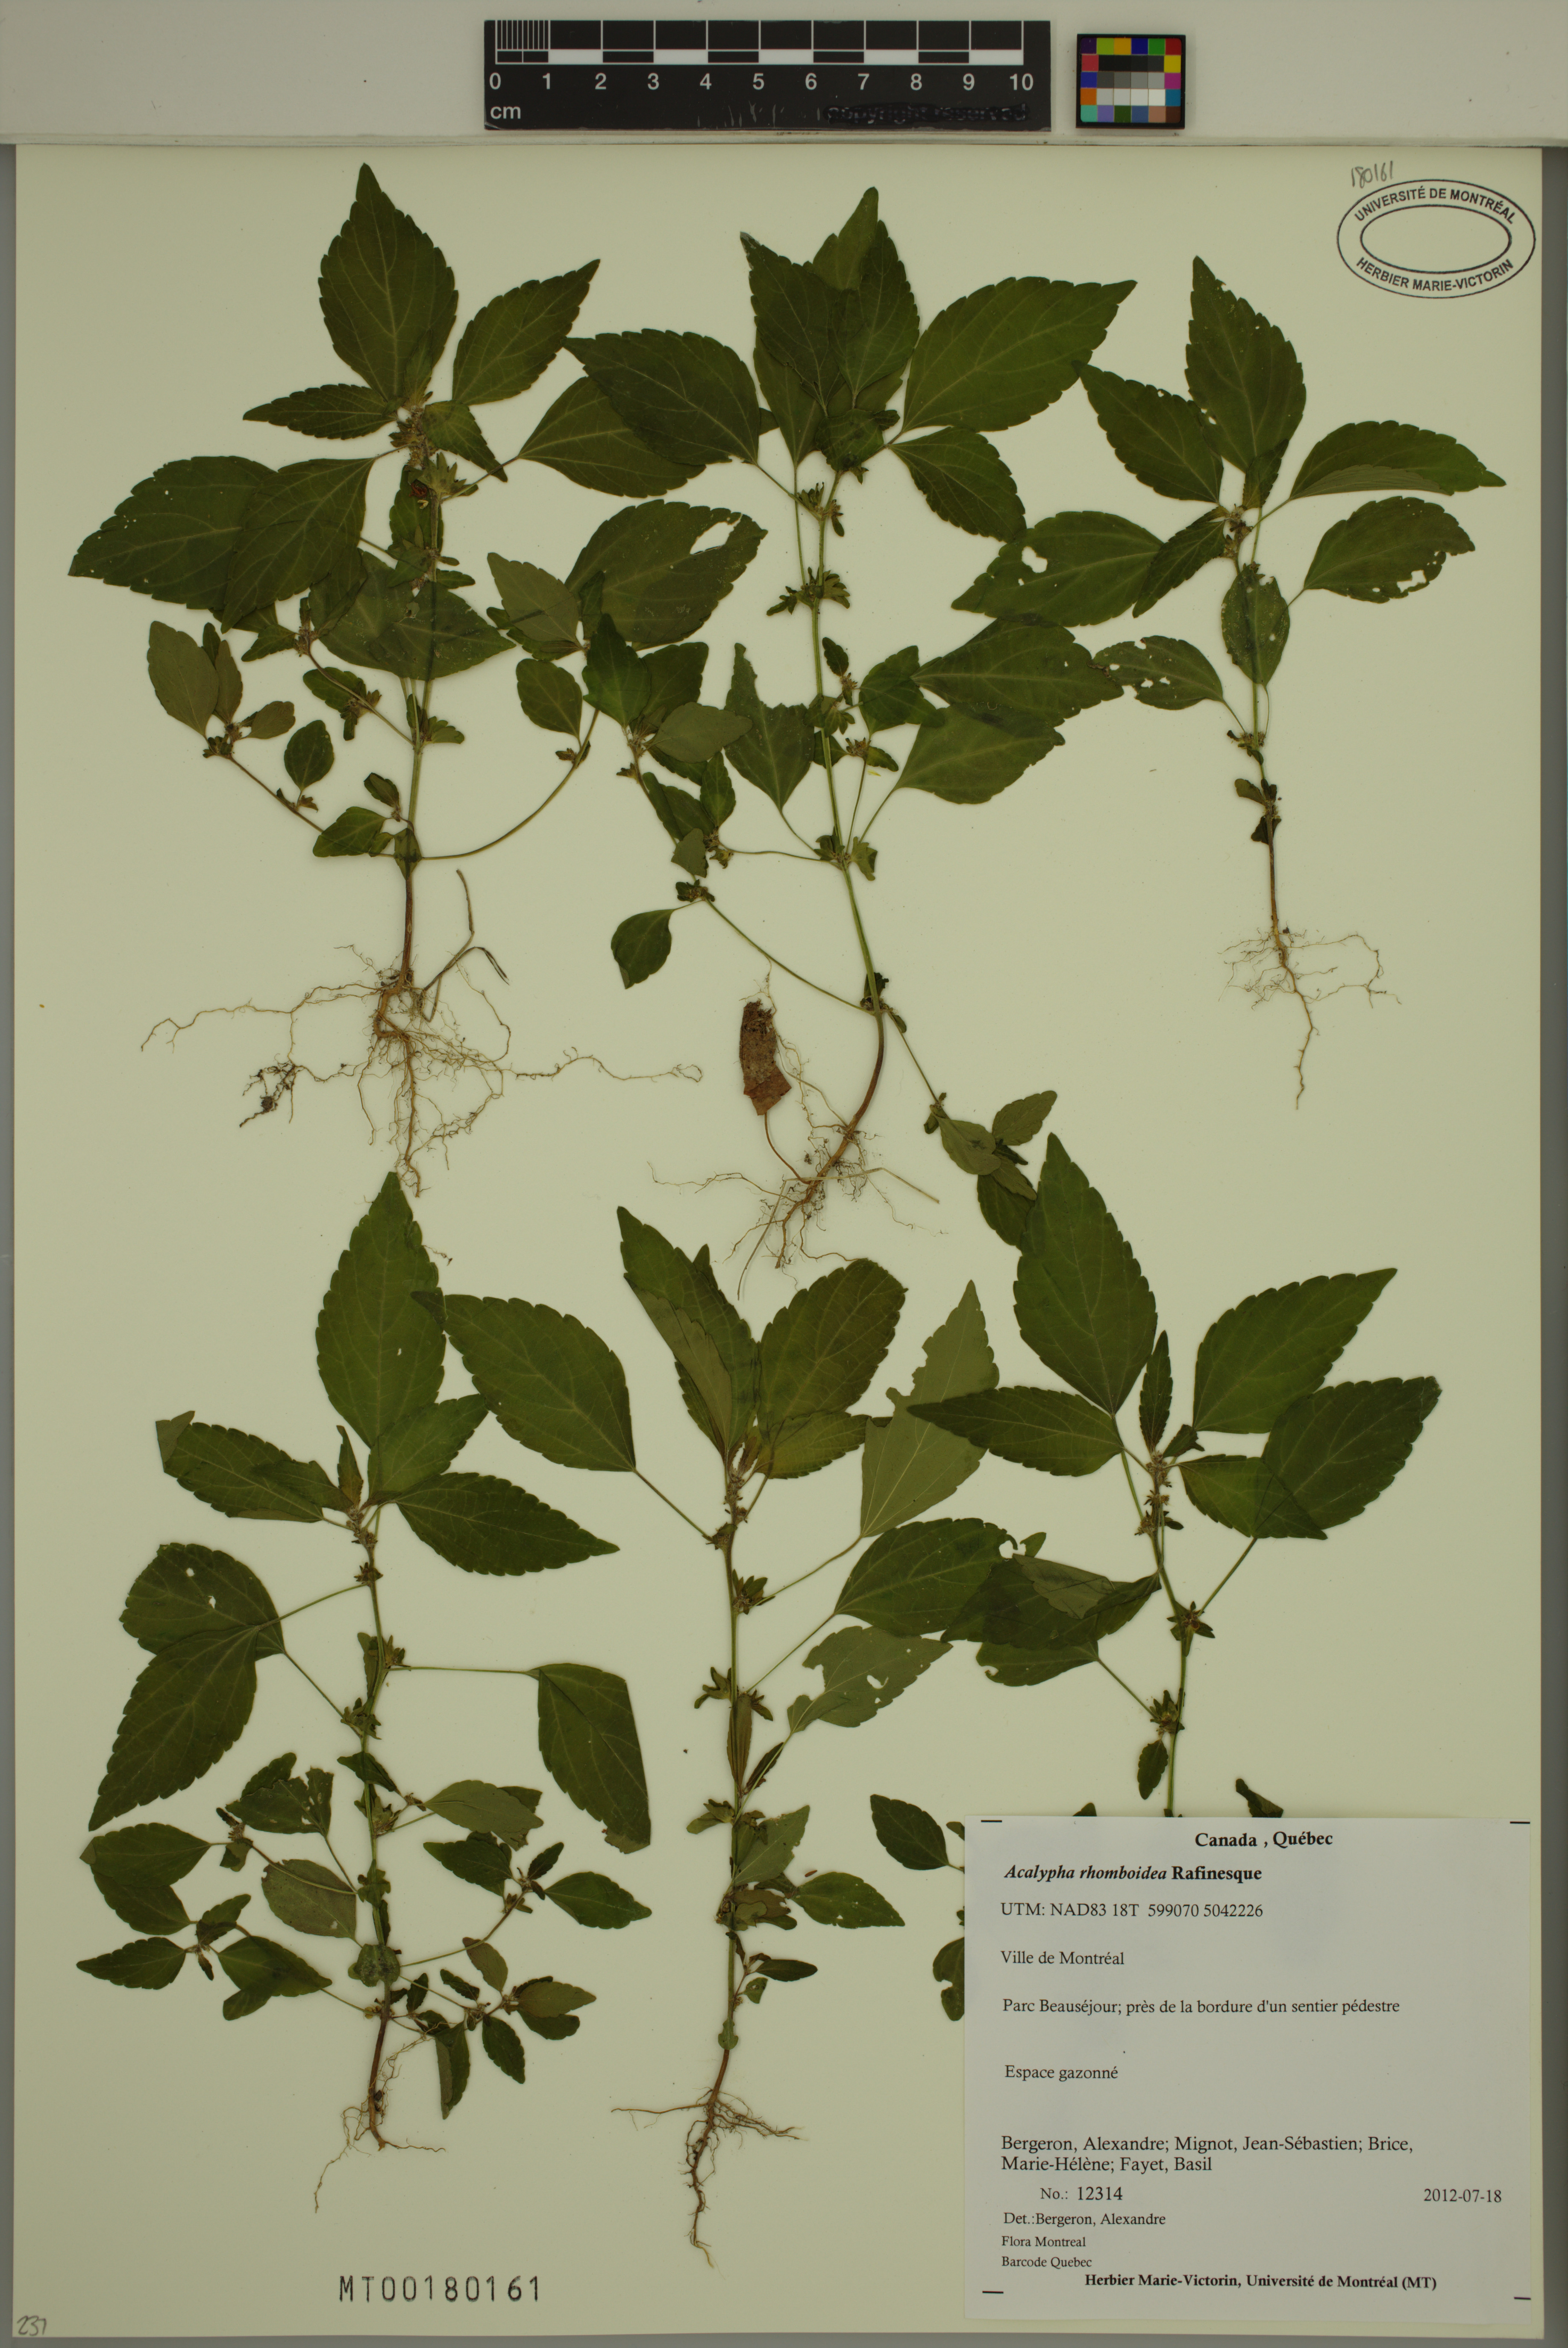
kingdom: Plantae
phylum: Tracheophyta
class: Magnoliopsida
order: Malpighiales
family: Euphorbiaceae
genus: Acalypha
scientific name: Acalypha rhomboidea
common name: Rhombic copperleaf
